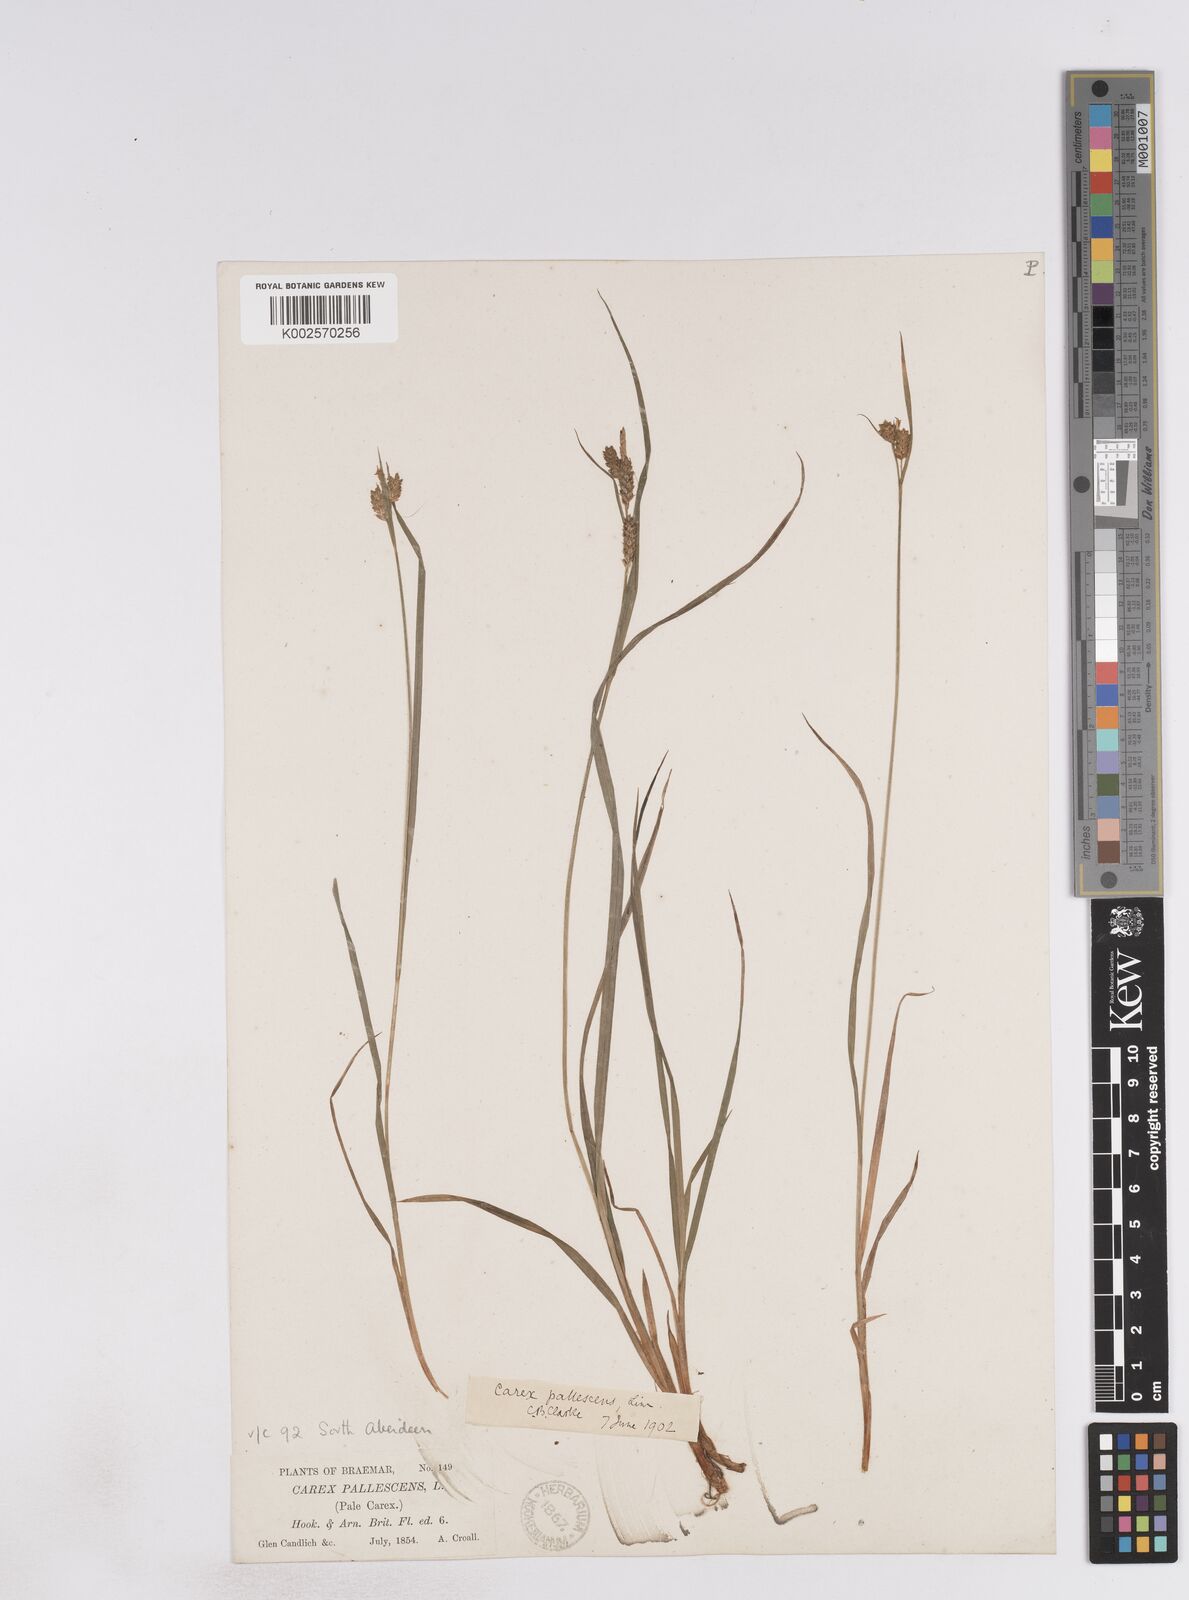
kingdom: Plantae
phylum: Tracheophyta
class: Liliopsida
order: Poales
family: Cyperaceae
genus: Carex
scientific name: Carex pallescens
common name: Pale sedge
